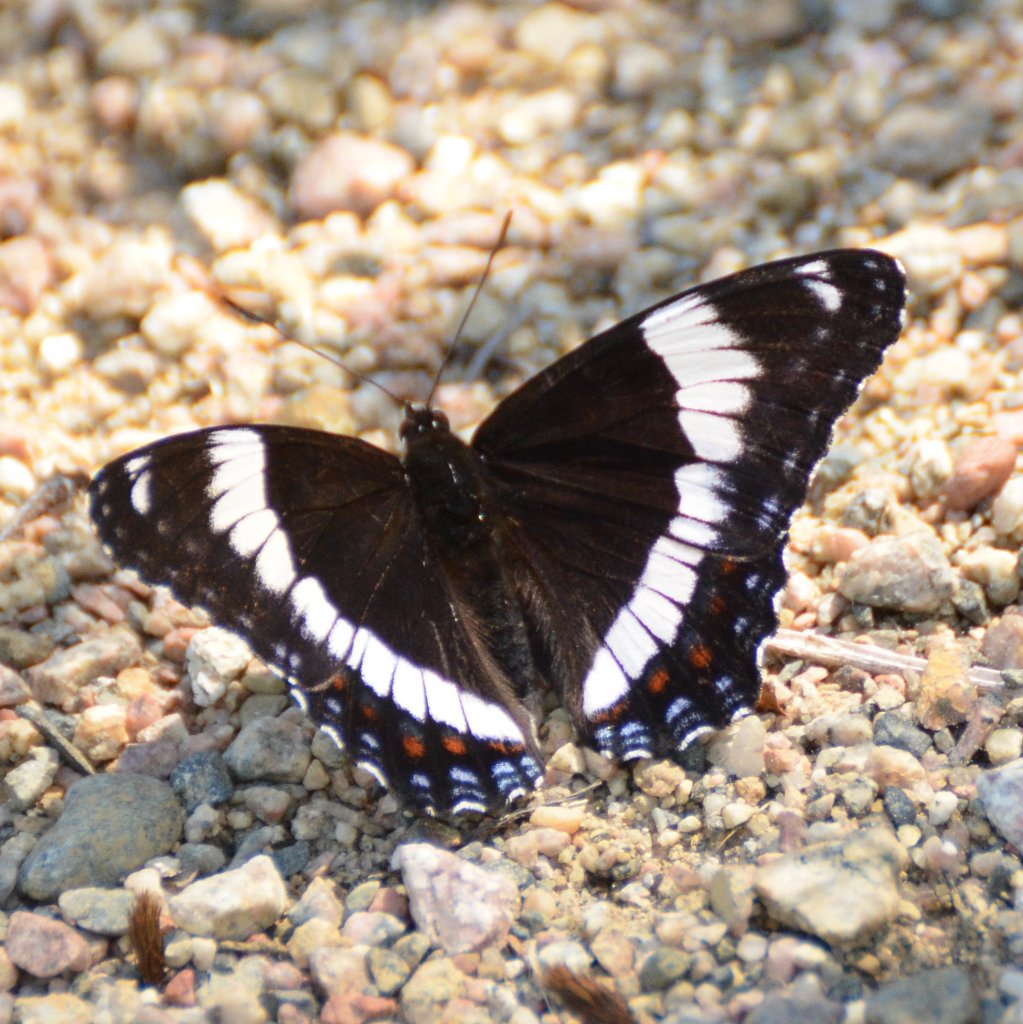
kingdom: Animalia
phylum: Arthropoda
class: Insecta
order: Lepidoptera
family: Nymphalidae
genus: Limenitis
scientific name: Limenitis arthemis
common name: Red-spotted Admiral
